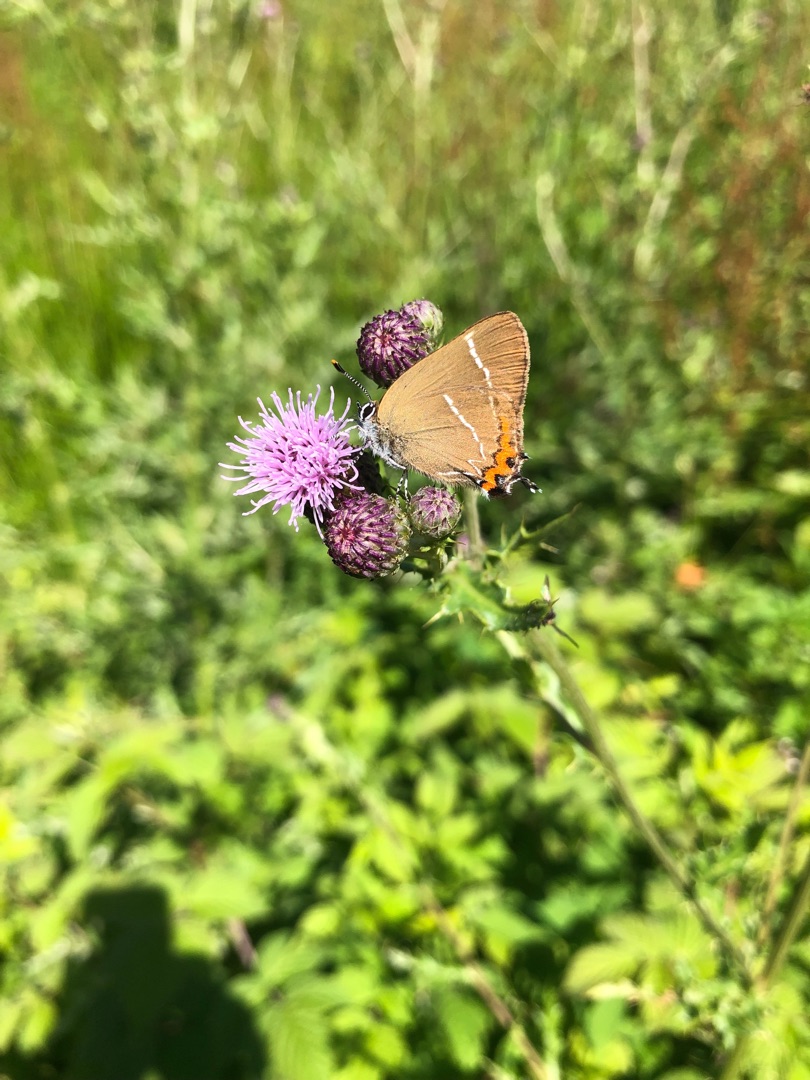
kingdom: Animalia
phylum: Arthropoda
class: Insecta
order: Lepidoptera
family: Lycaenidae
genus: Satyrium
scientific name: Satyrium w-album
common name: Det hvide W
